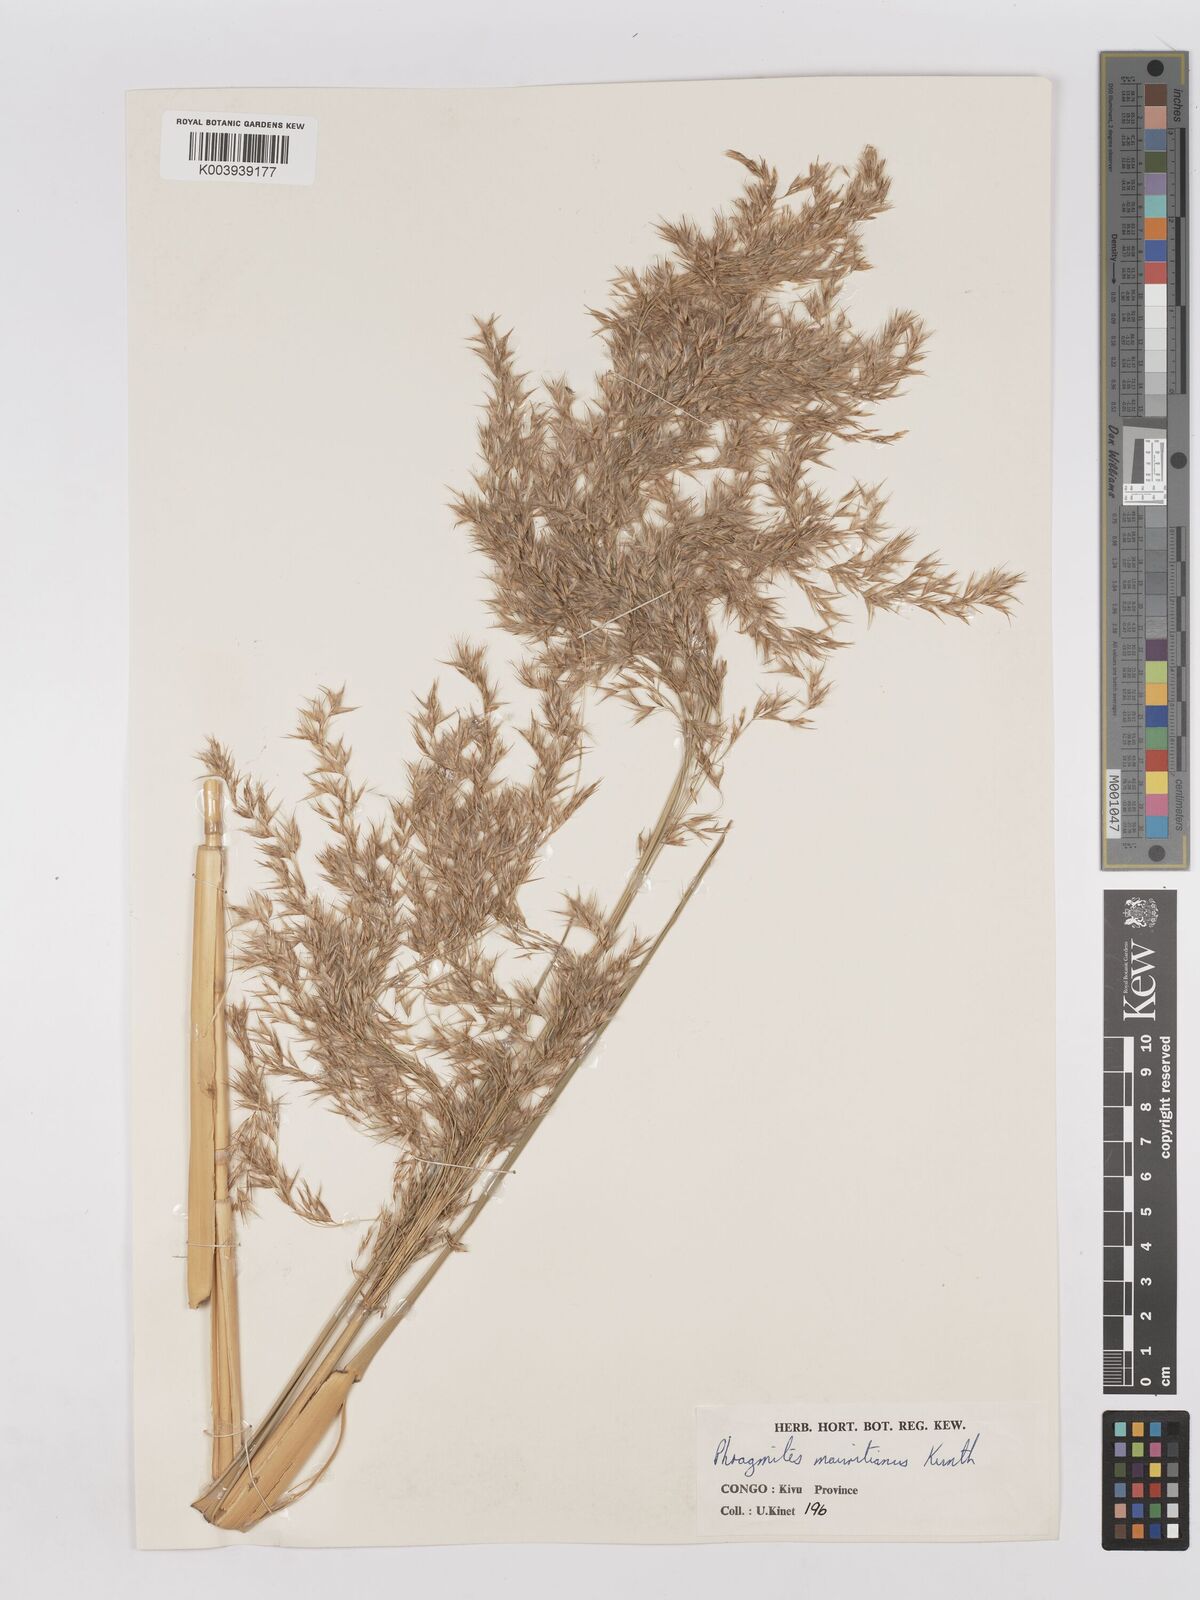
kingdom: Plantae
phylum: Tracheophyta
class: Liliopsida
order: Poales
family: Poaceae
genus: Phragmites
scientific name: Phragmites mauritianus
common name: Reed grass
